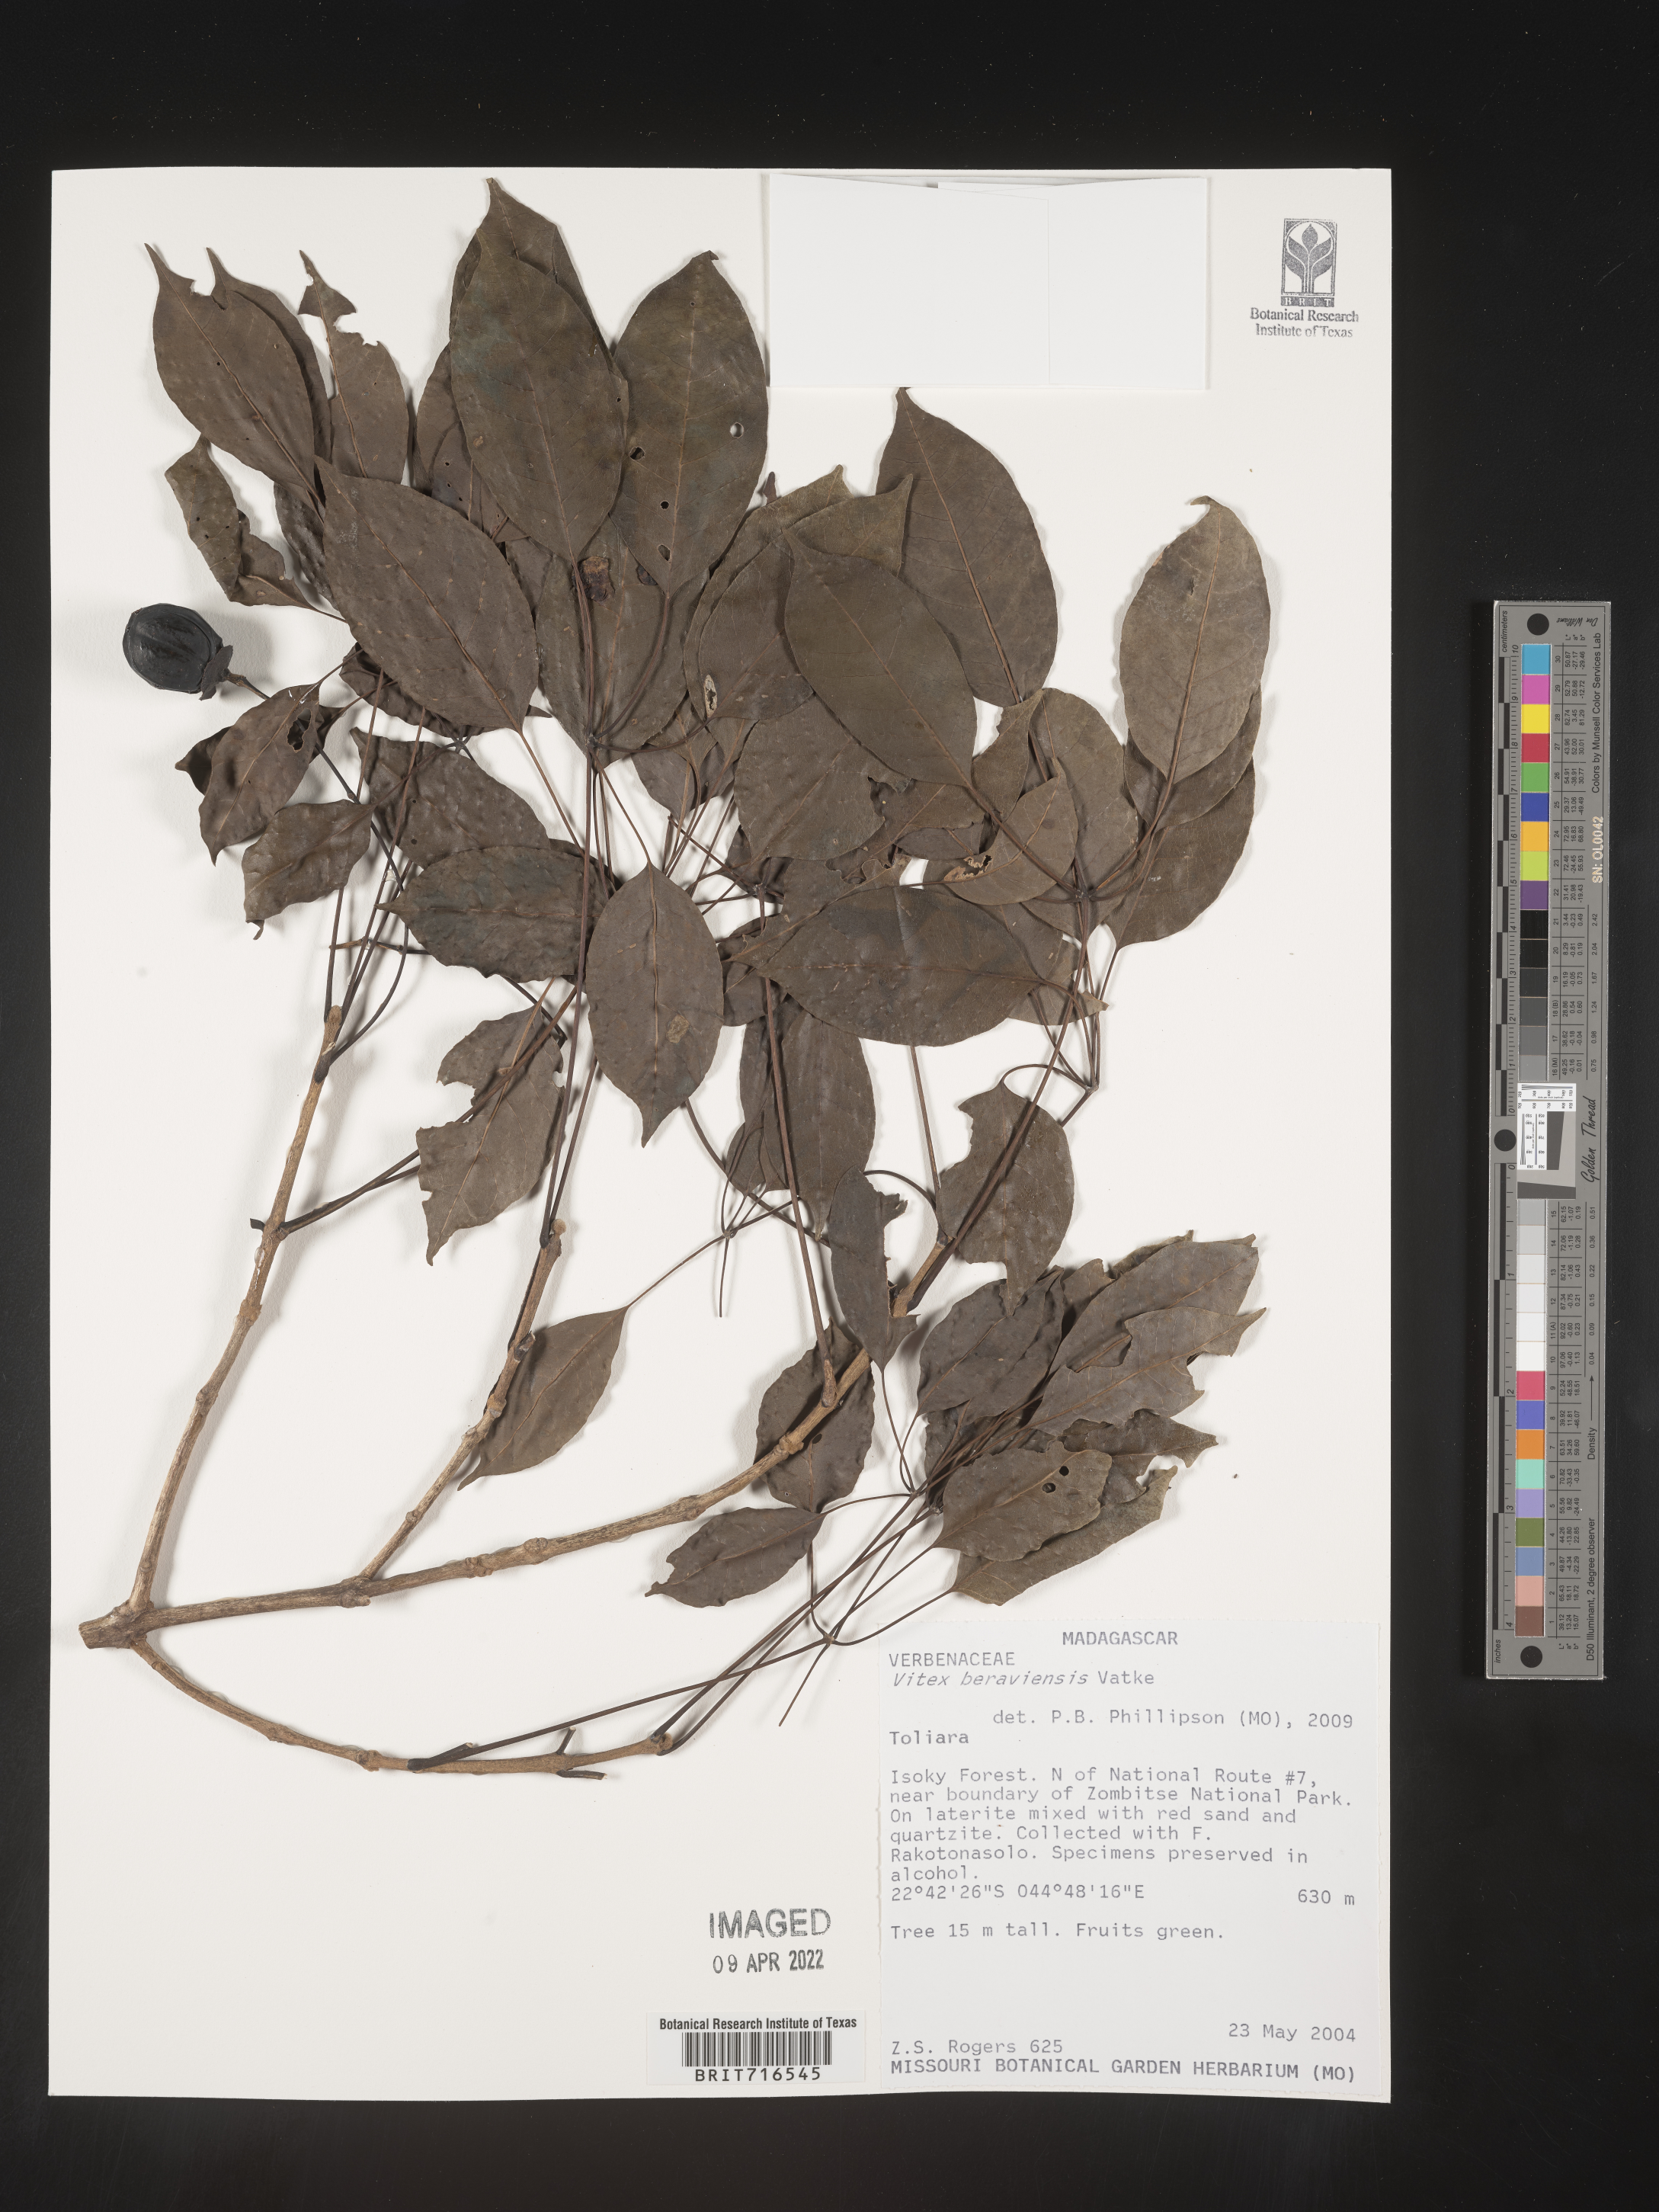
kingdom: Plantae
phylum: Tracheophyta
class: Magnoliopsida
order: Lamiales
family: Lamiaceae
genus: Vitex
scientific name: Vitex
